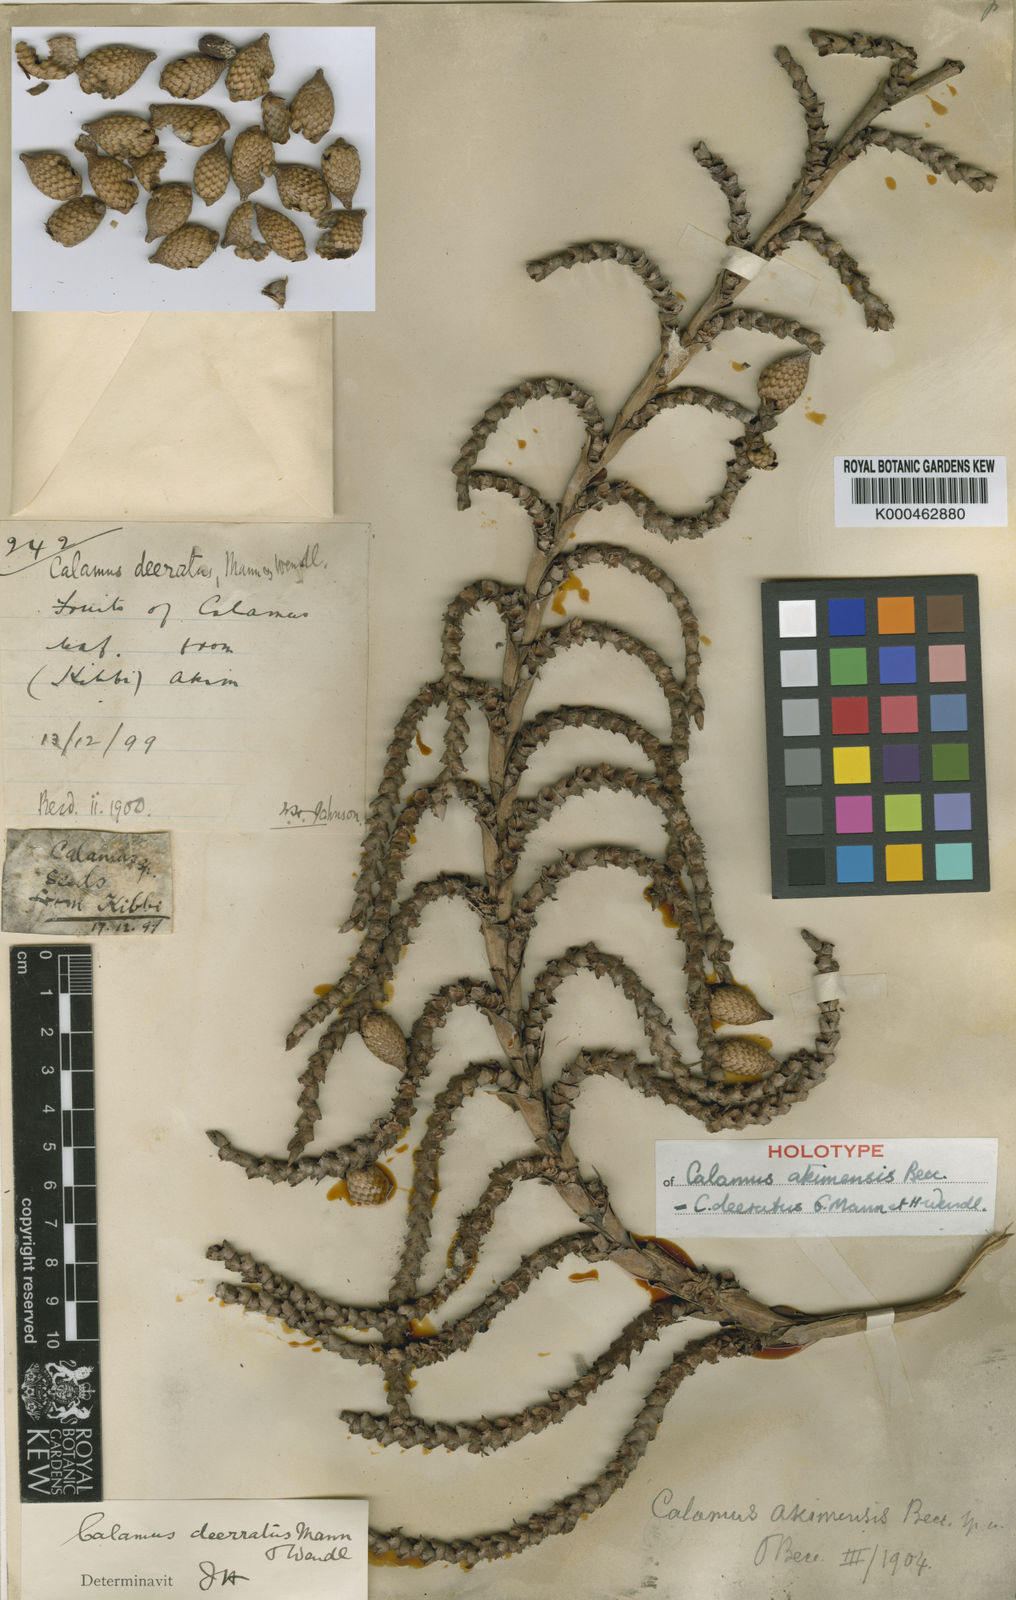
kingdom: Plantae
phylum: Tracheophyta
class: Liliopsida
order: Arecales
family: Arecaceae
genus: Calamus
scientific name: Calamus deerratus
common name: Rattan
